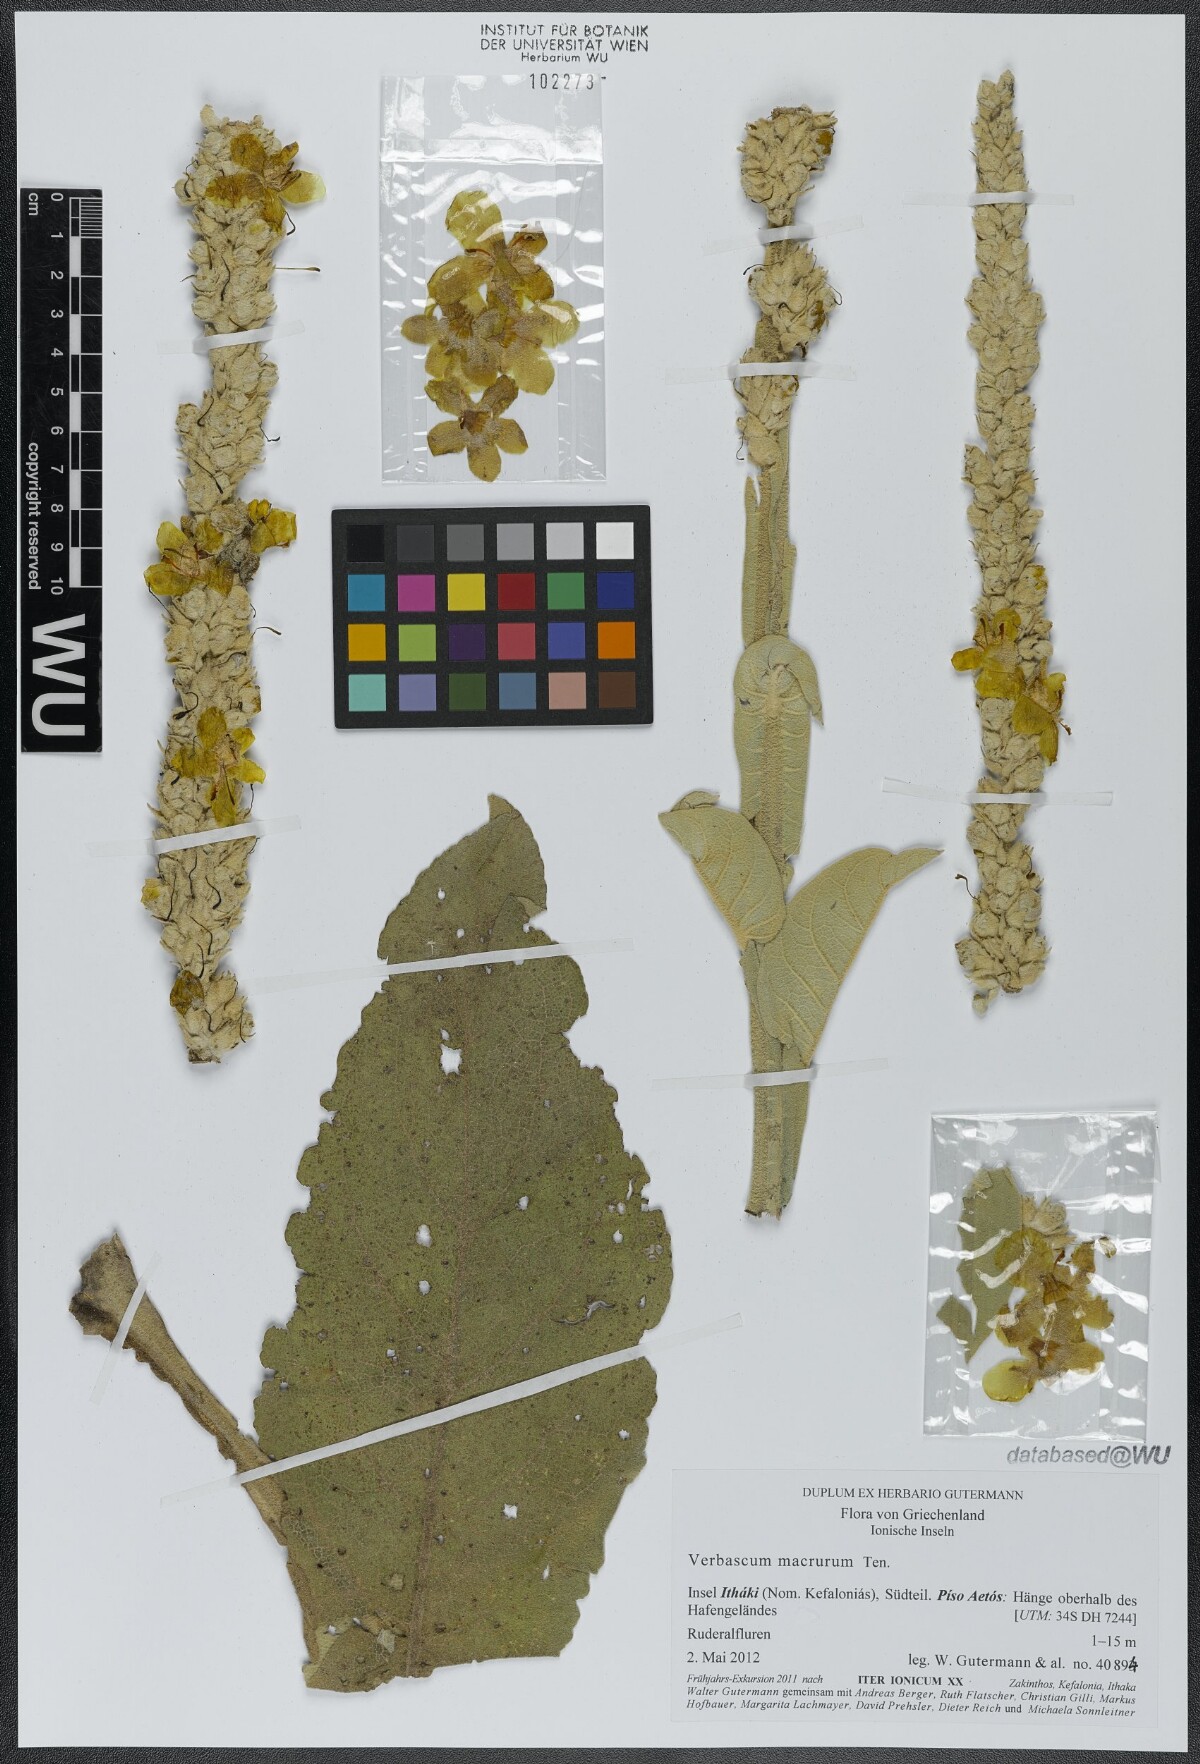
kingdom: Plantae
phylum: Tracheophyta
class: Magnoliopsida
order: Lamiales
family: Scrophulariaceae
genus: Verbascum
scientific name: Verbascum macrurum
